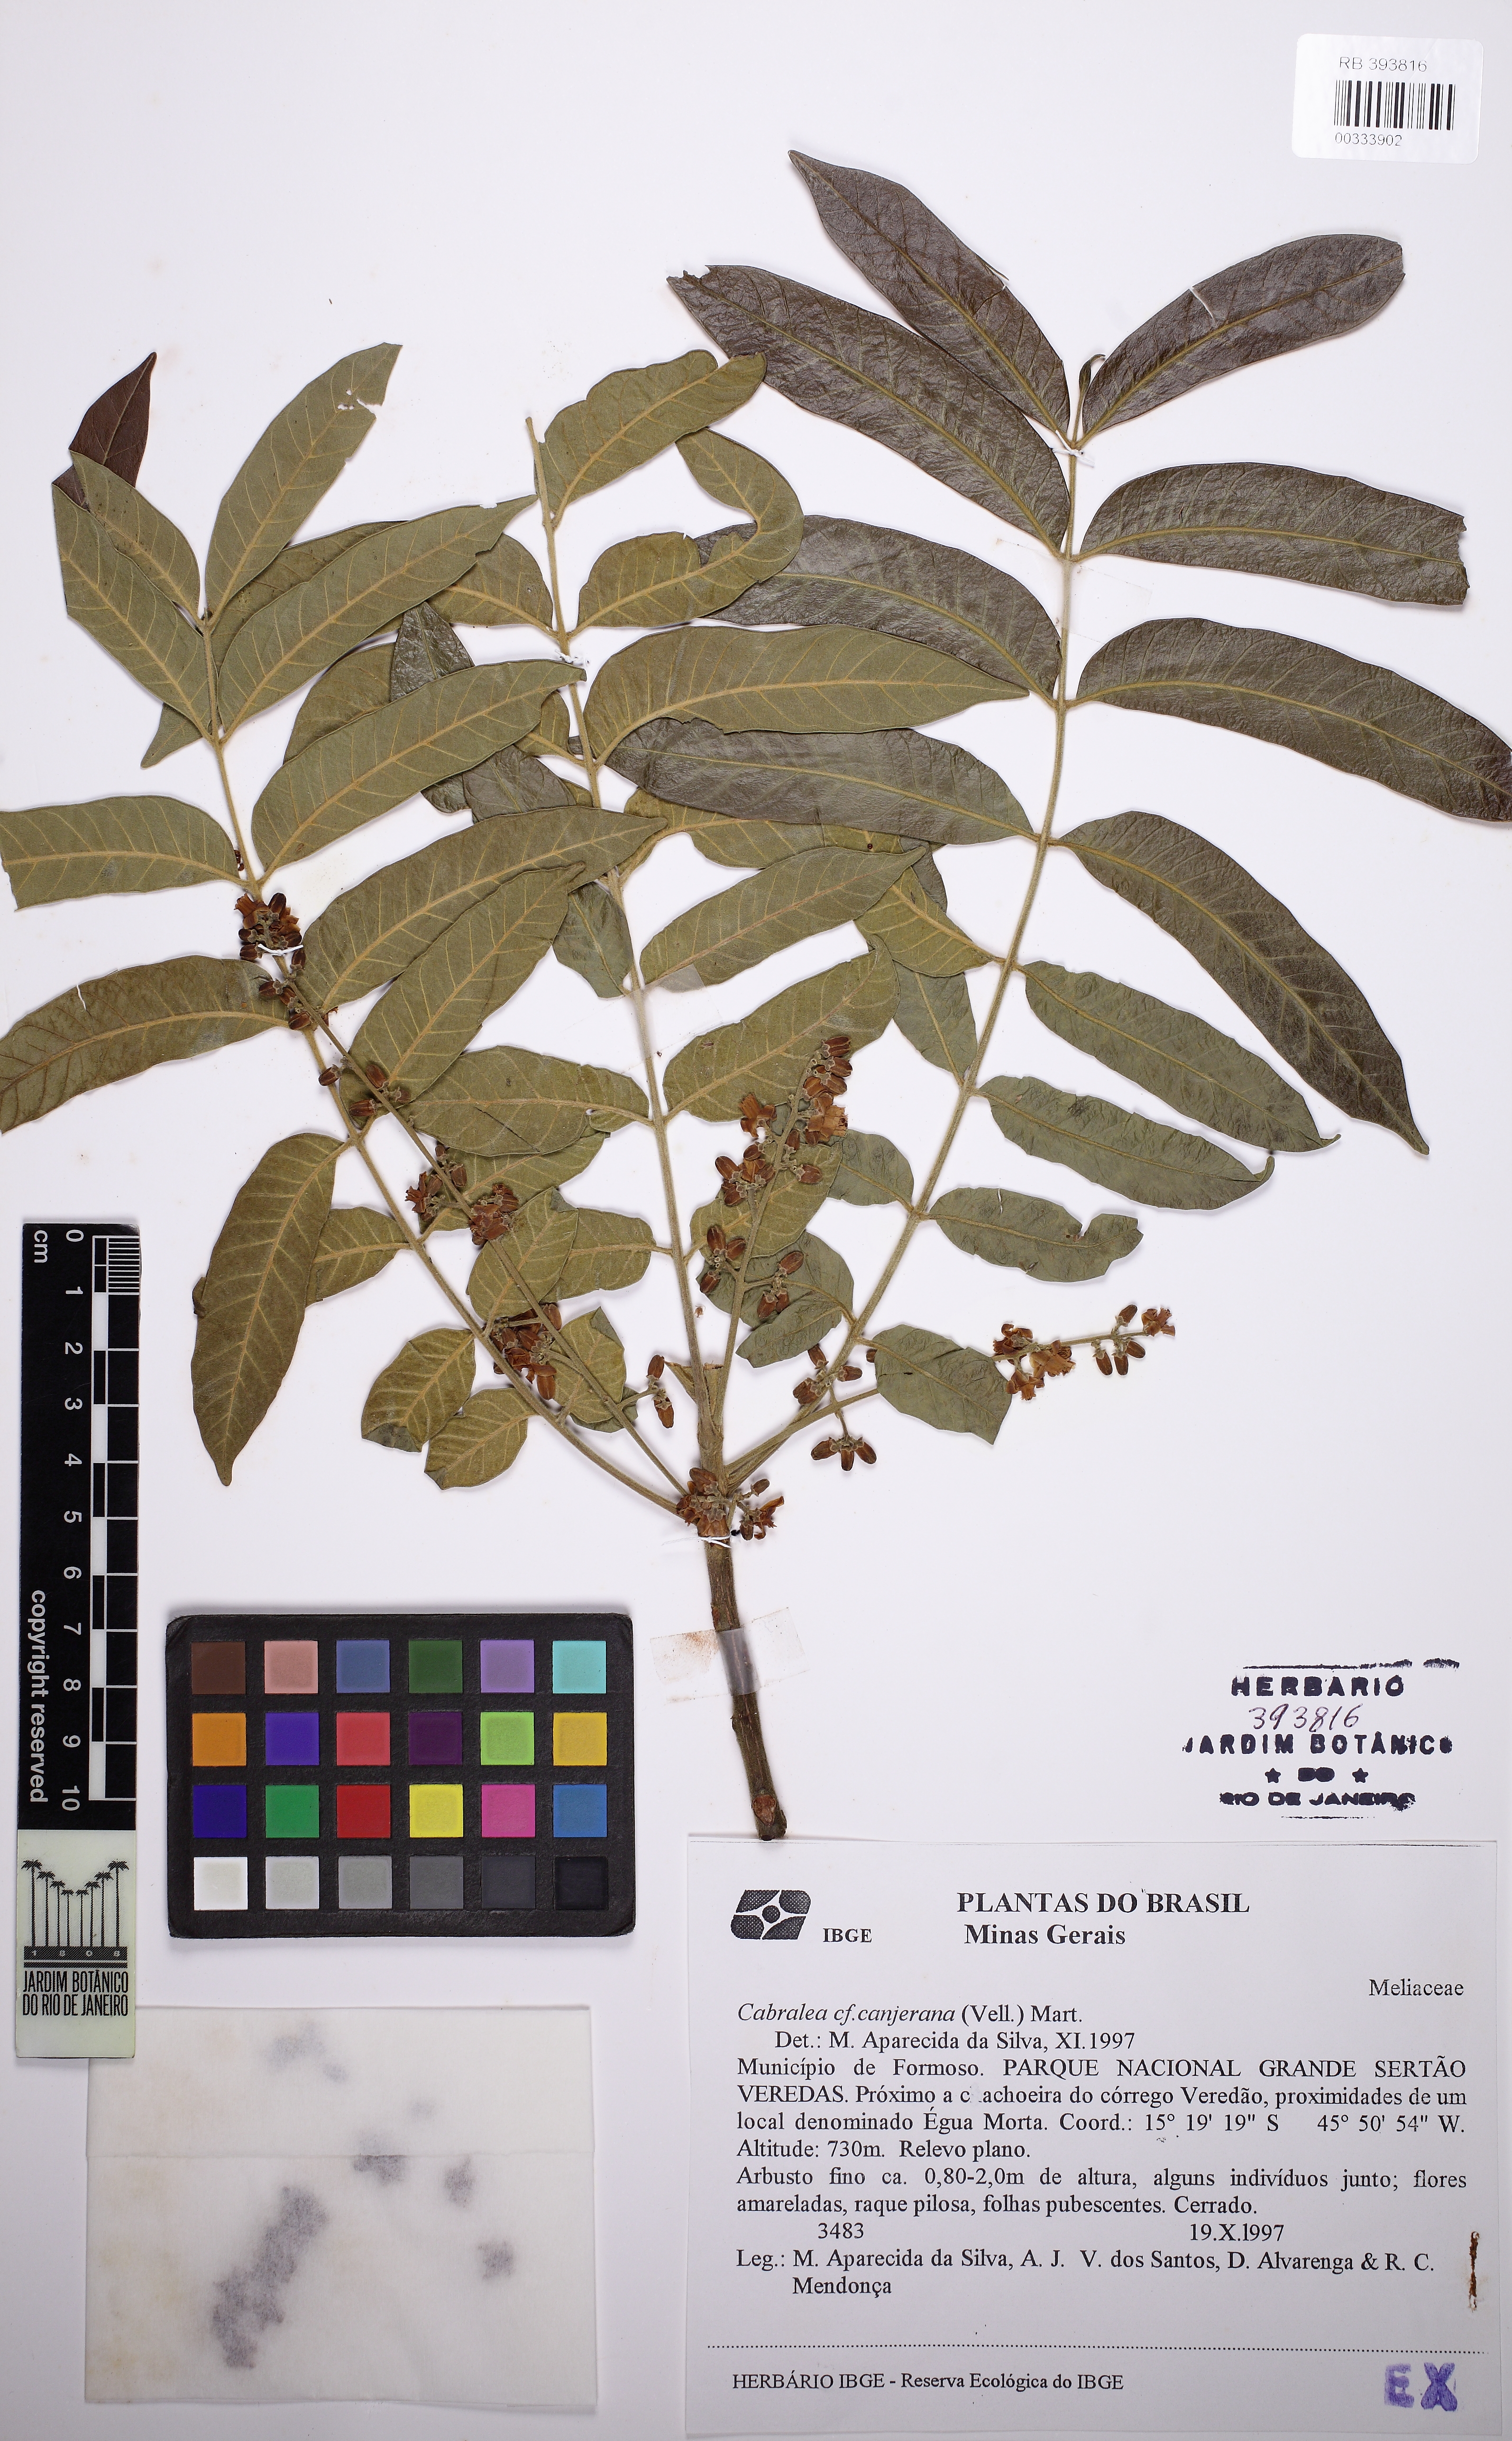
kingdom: Plantae
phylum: Tracheophyta
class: Magnoliopsida
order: Sapindales
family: Meliaceae
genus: Cabralea
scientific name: Cabralea canjerana
